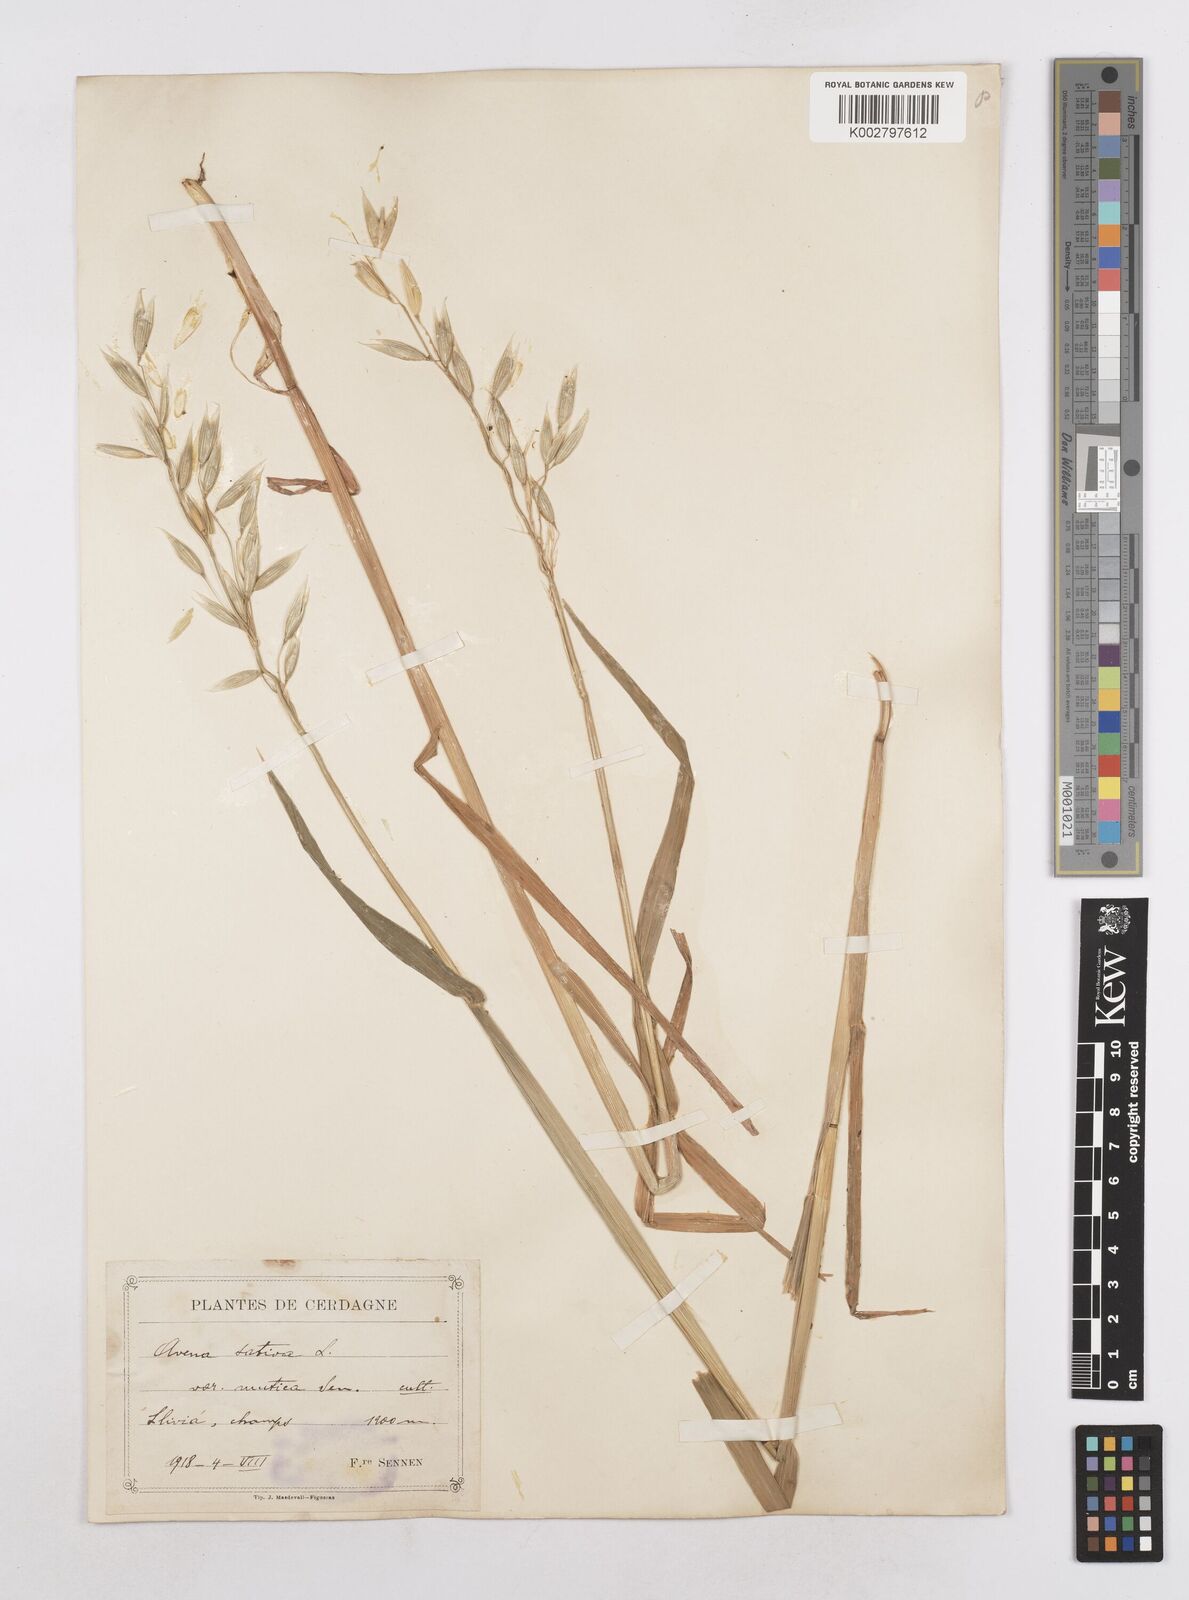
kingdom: Plantae
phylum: Tracheophyta
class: Liliopsida
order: Poales
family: Poaceae
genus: Avena
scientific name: Avena sativa
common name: Oat
